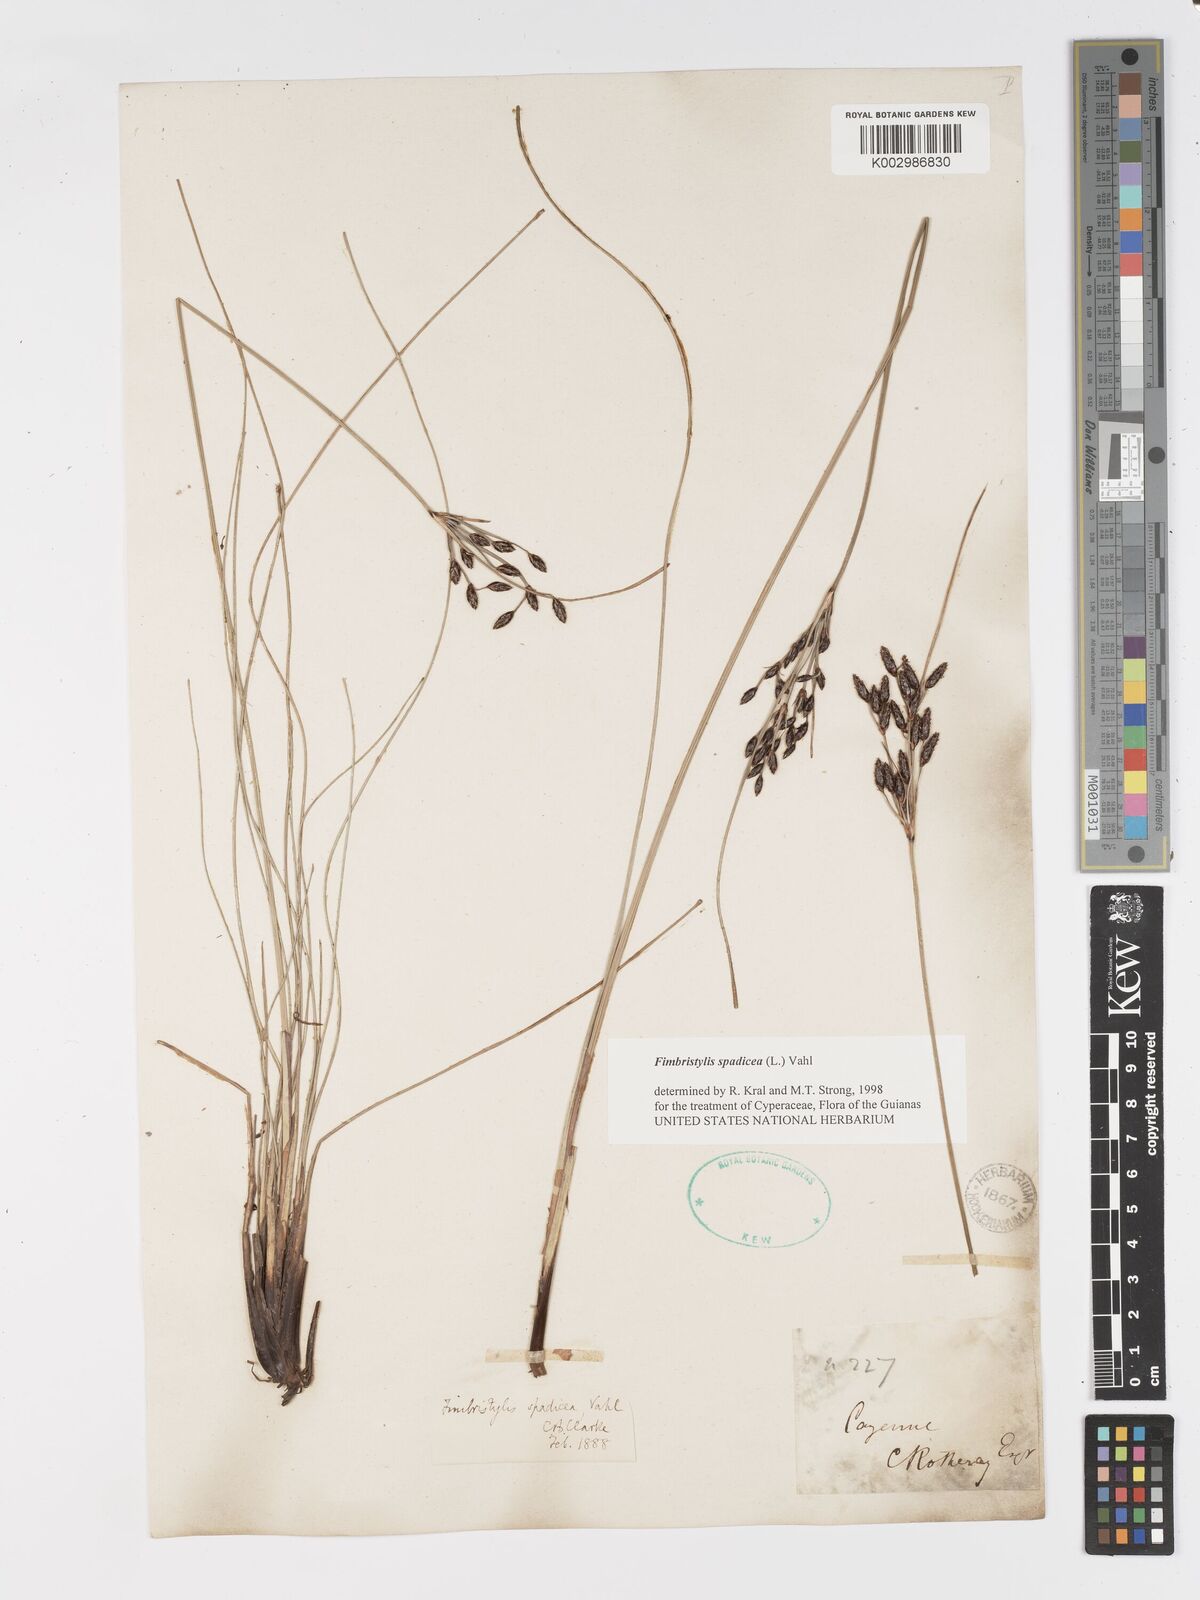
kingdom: Plantae
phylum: Tracheophyta
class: Liliopsida
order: Poales
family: Cyperaceae
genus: Fimbristylis
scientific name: Fimbristylis spadicea
